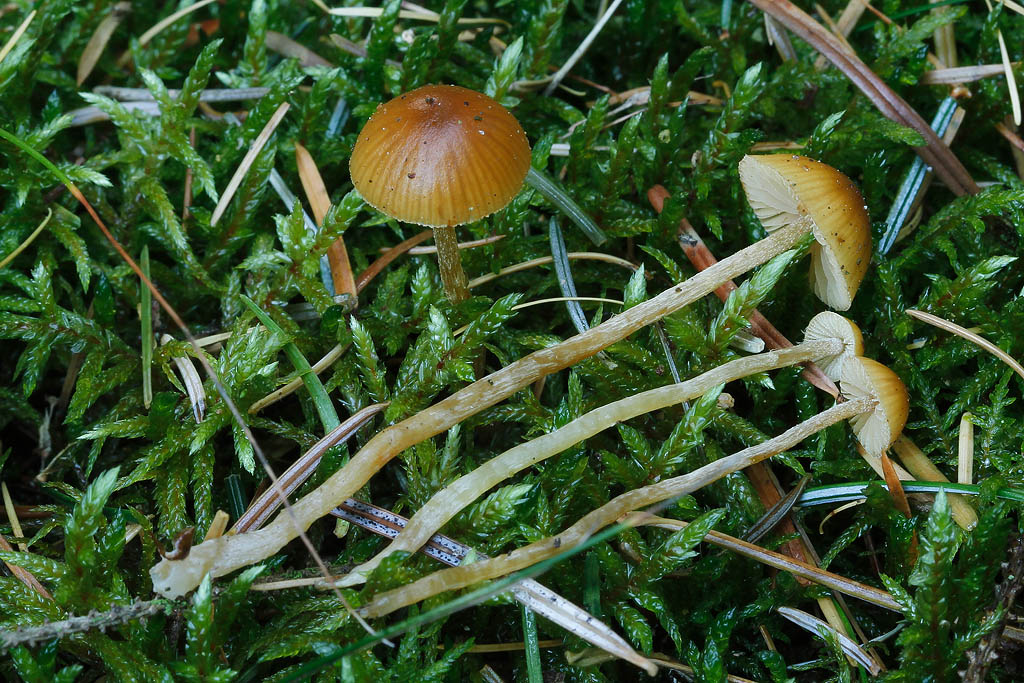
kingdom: Fungi
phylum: Basidiomycota
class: Agaricomycetes
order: Agaricales
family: Hymenogastraceae
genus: Galerina
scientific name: Galerina pumila
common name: honninggul hjelmhat
